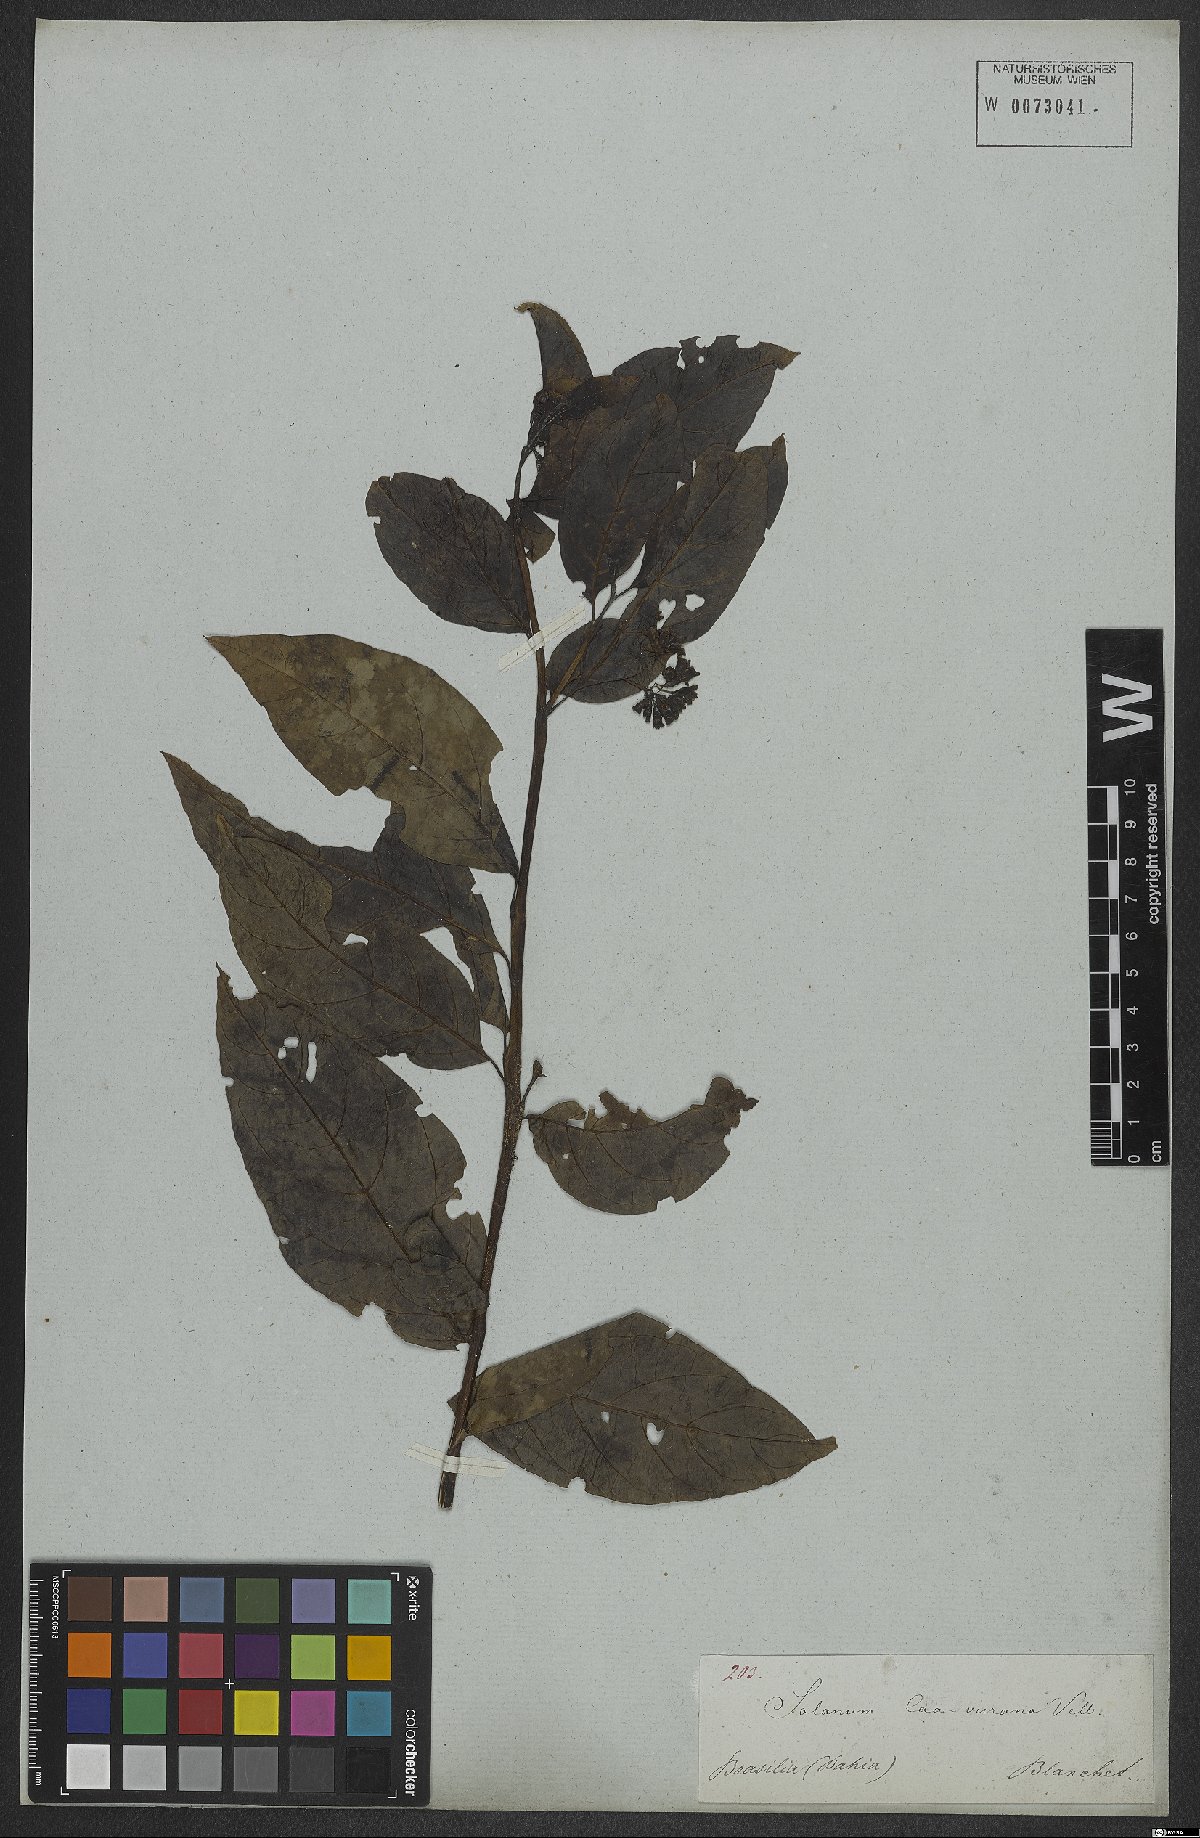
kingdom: Plantae
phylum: Tracheophyta
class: Magnoliopsida
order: Solanales
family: Solanaceae
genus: Solanum
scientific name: Solanum caavurana
